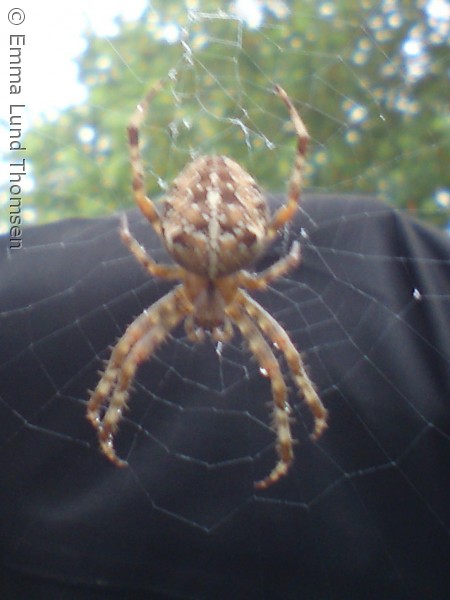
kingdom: Animalia
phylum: Arthropoda
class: Arachnida
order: Araneae
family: Araneidae
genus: Araneus
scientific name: Araneus diadematus
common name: Korsedderkop
